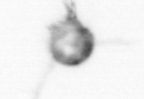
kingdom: Animalia
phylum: Arthropoda
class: Copepoda
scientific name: Copepoda
